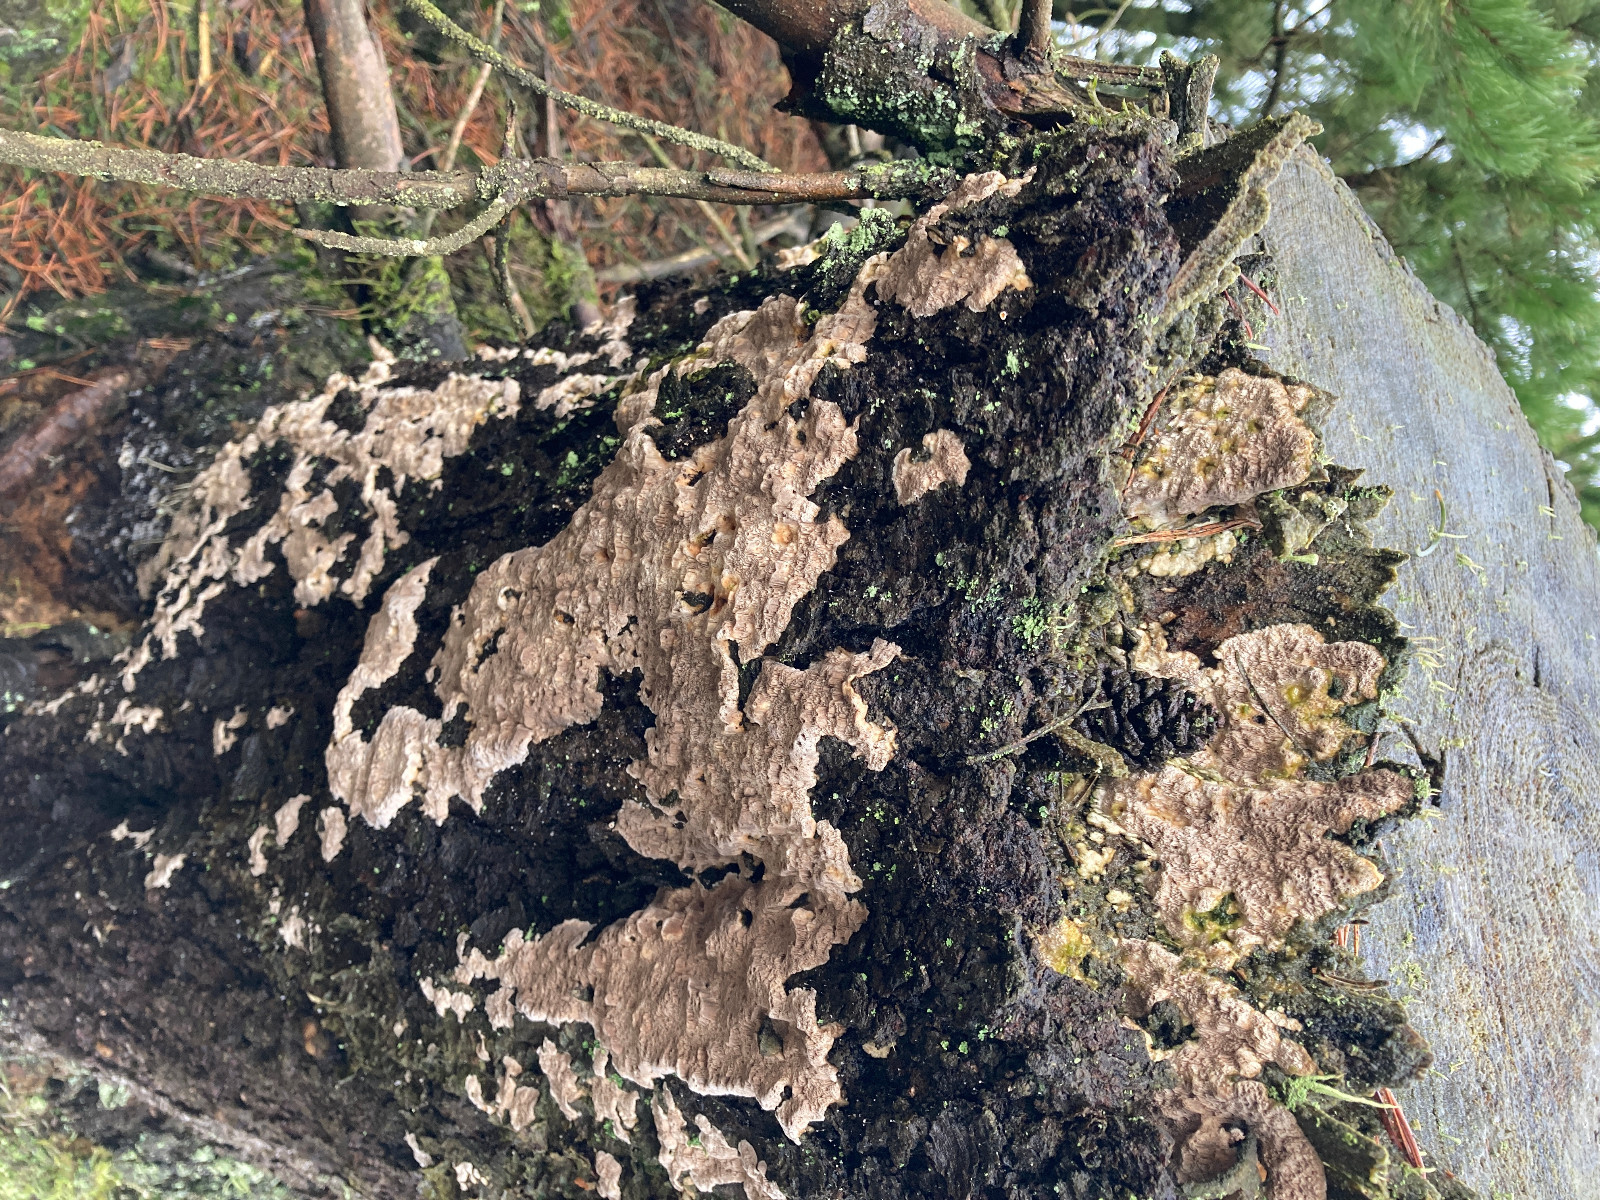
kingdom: Fungi
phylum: Basidiomycota
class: Agaricomycetes
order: Polyporales
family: Gelatoporiaceae
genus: Cinereomyces
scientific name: Cinereomyces lindbladii
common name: almindelig gråporesvamp
